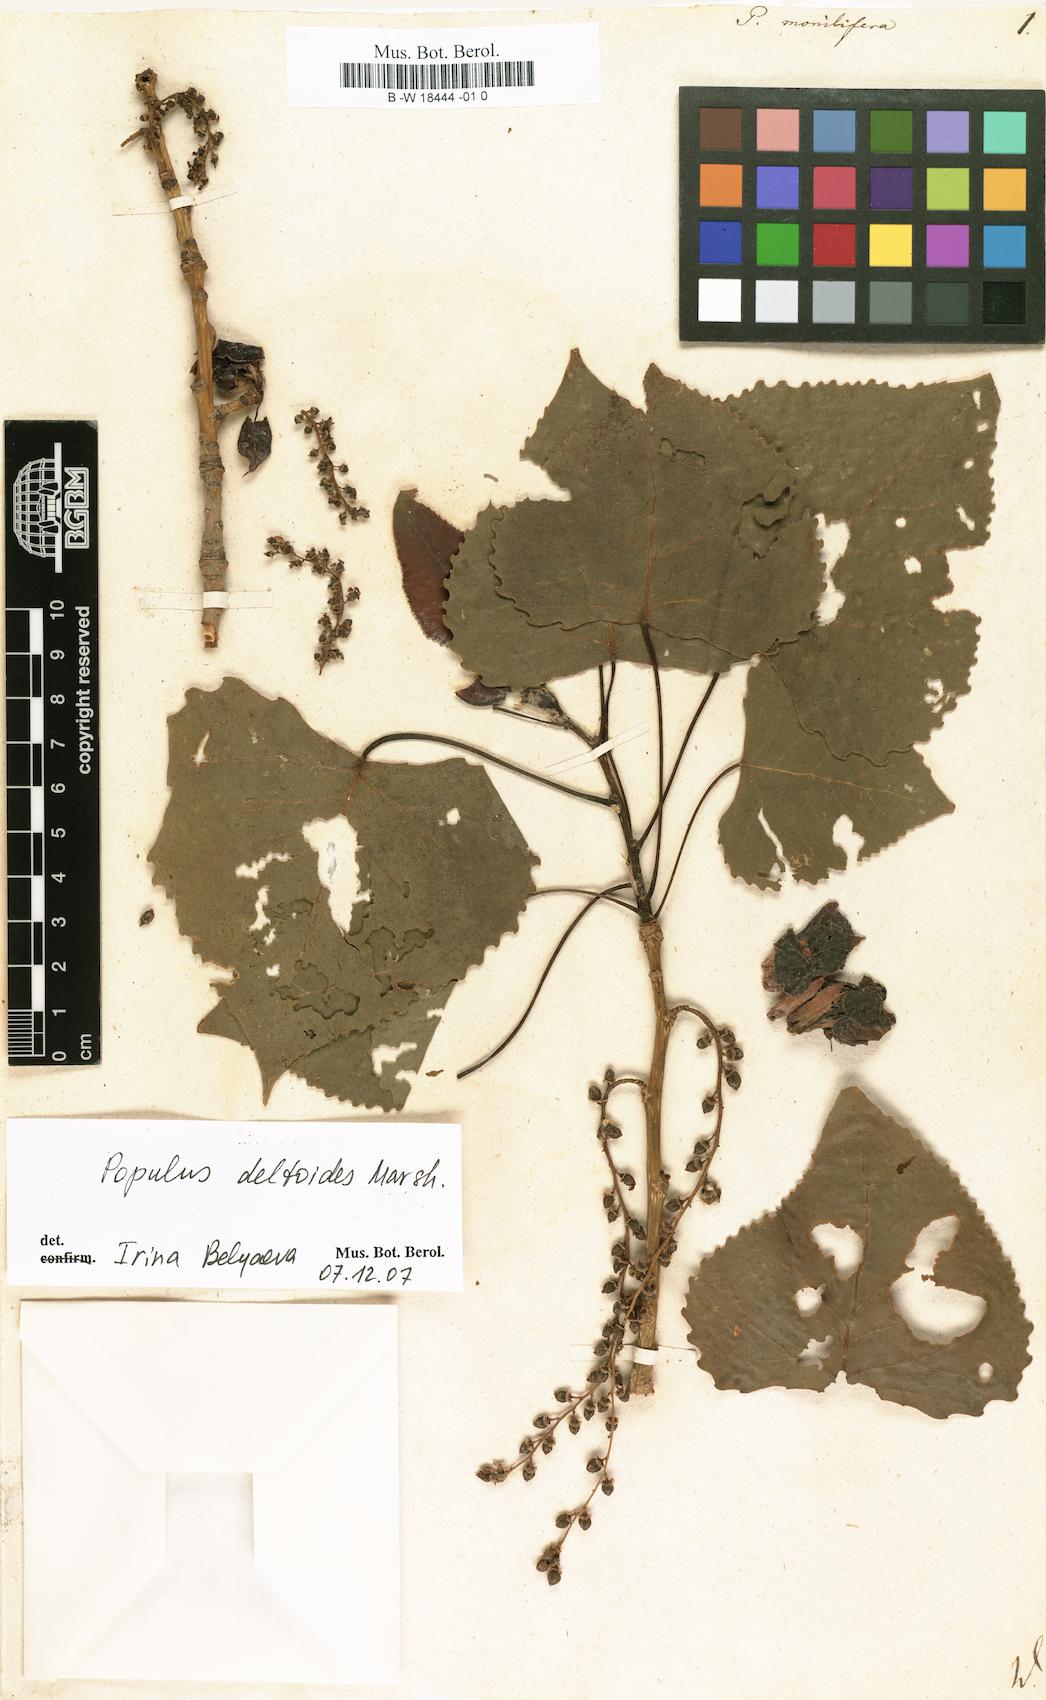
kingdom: Plantae
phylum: Tracheophyta
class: Magnoliopsida
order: Malpighiales
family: Salicaceae
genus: Populus
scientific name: Populus deltoides
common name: Eastern cottonwood
